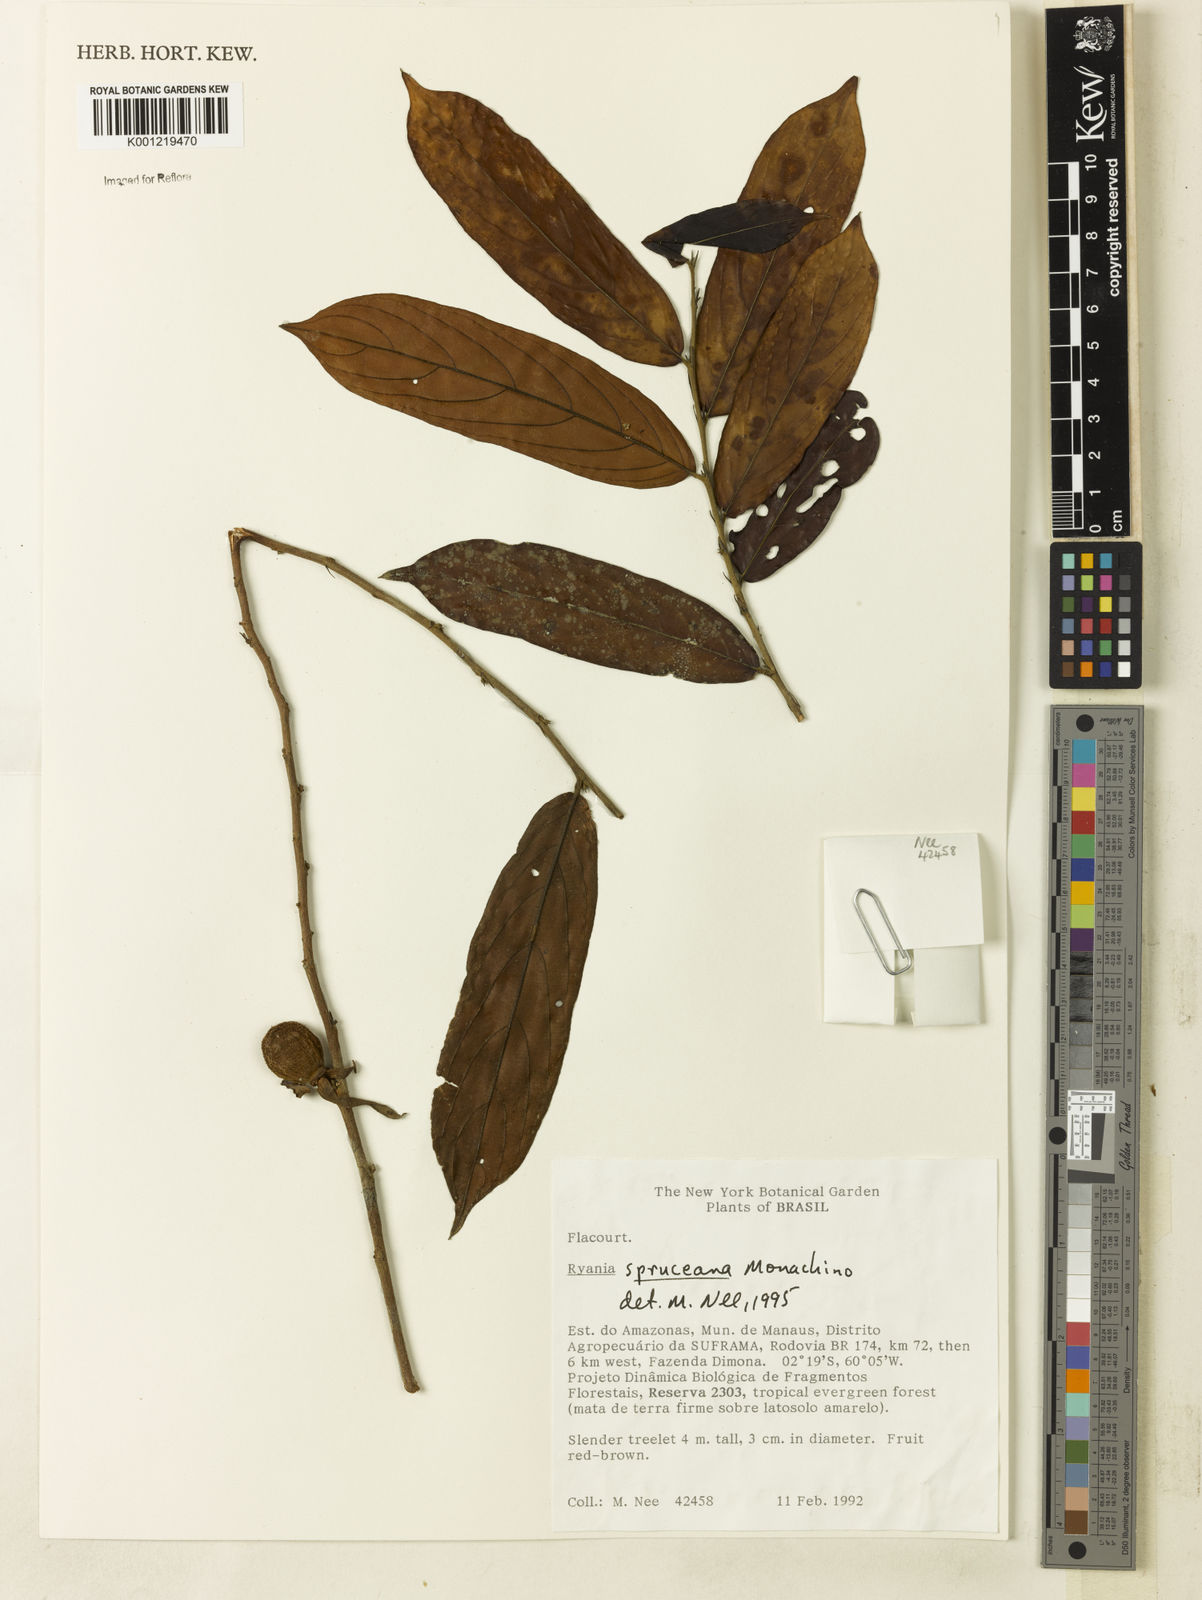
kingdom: Plantae
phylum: Tracheophyta
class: Magnoliopsida
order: Malpighiales
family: Salicaceae
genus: Ryania
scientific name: Ryania spruceana
